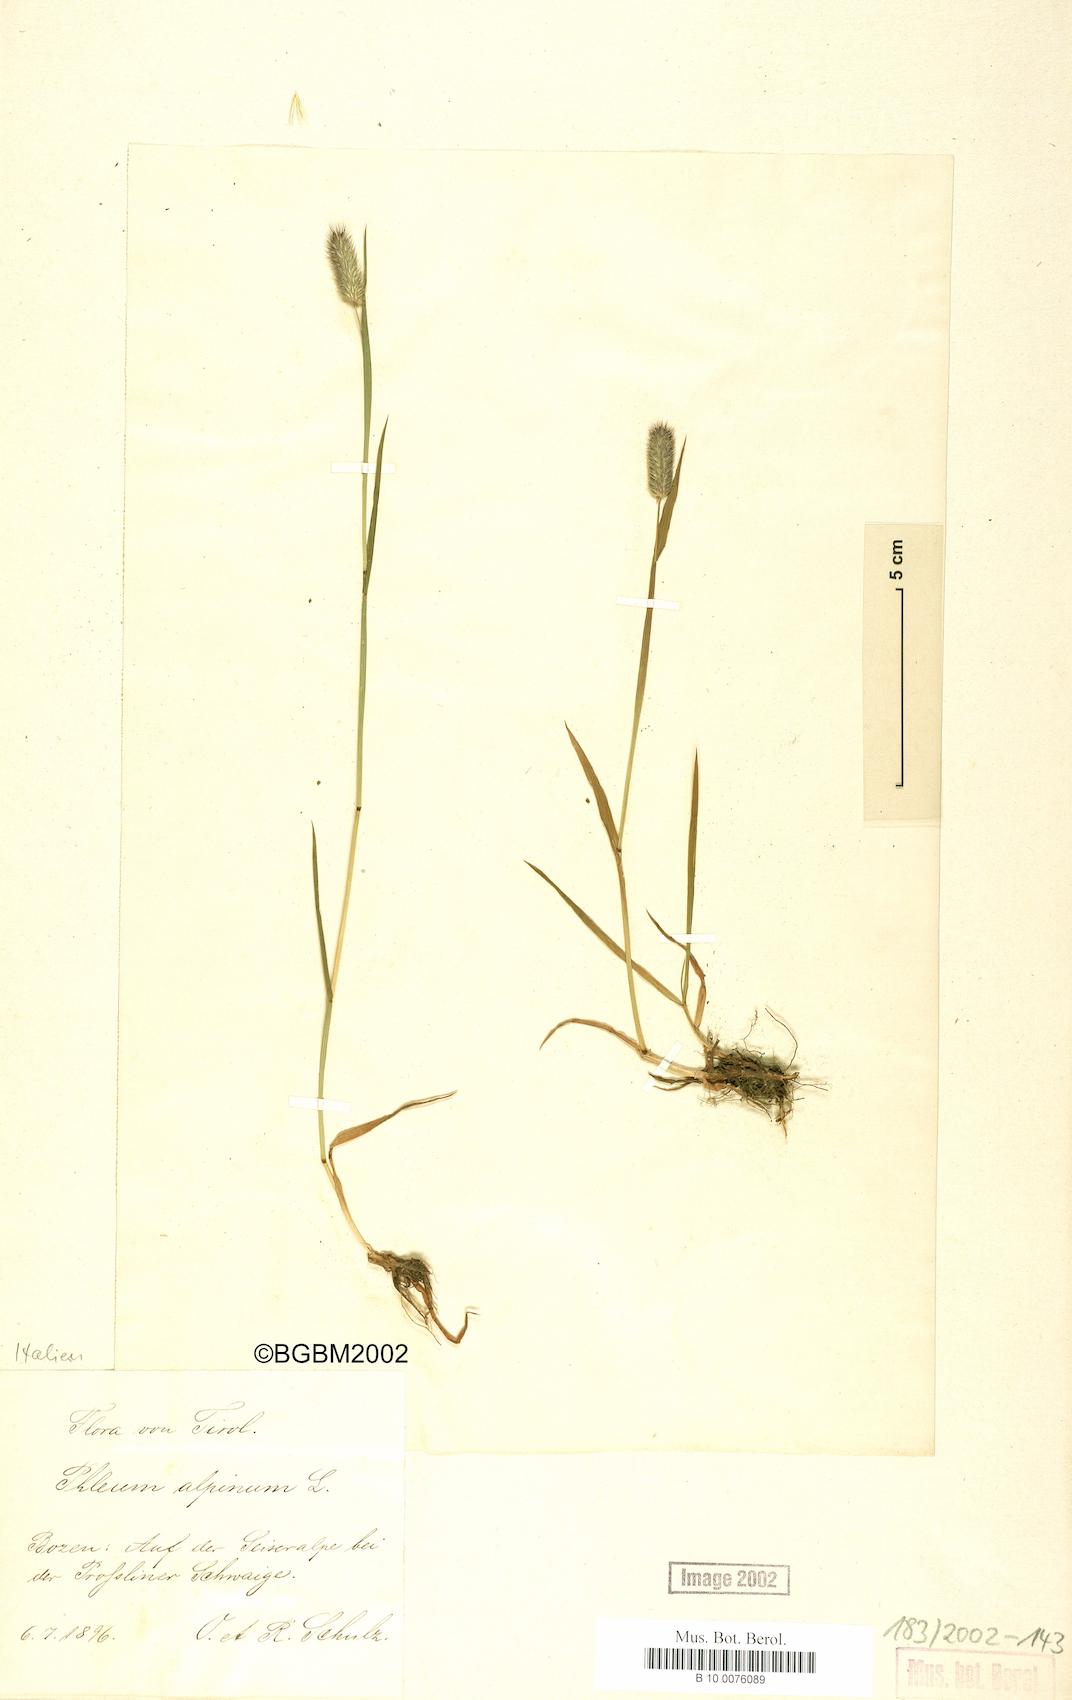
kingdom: Plantae
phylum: Tracheophyta
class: Liliopsida
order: Poales
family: Poaceae
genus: Phleum
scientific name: Phleum alpinum
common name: Alpine cat's-tail
